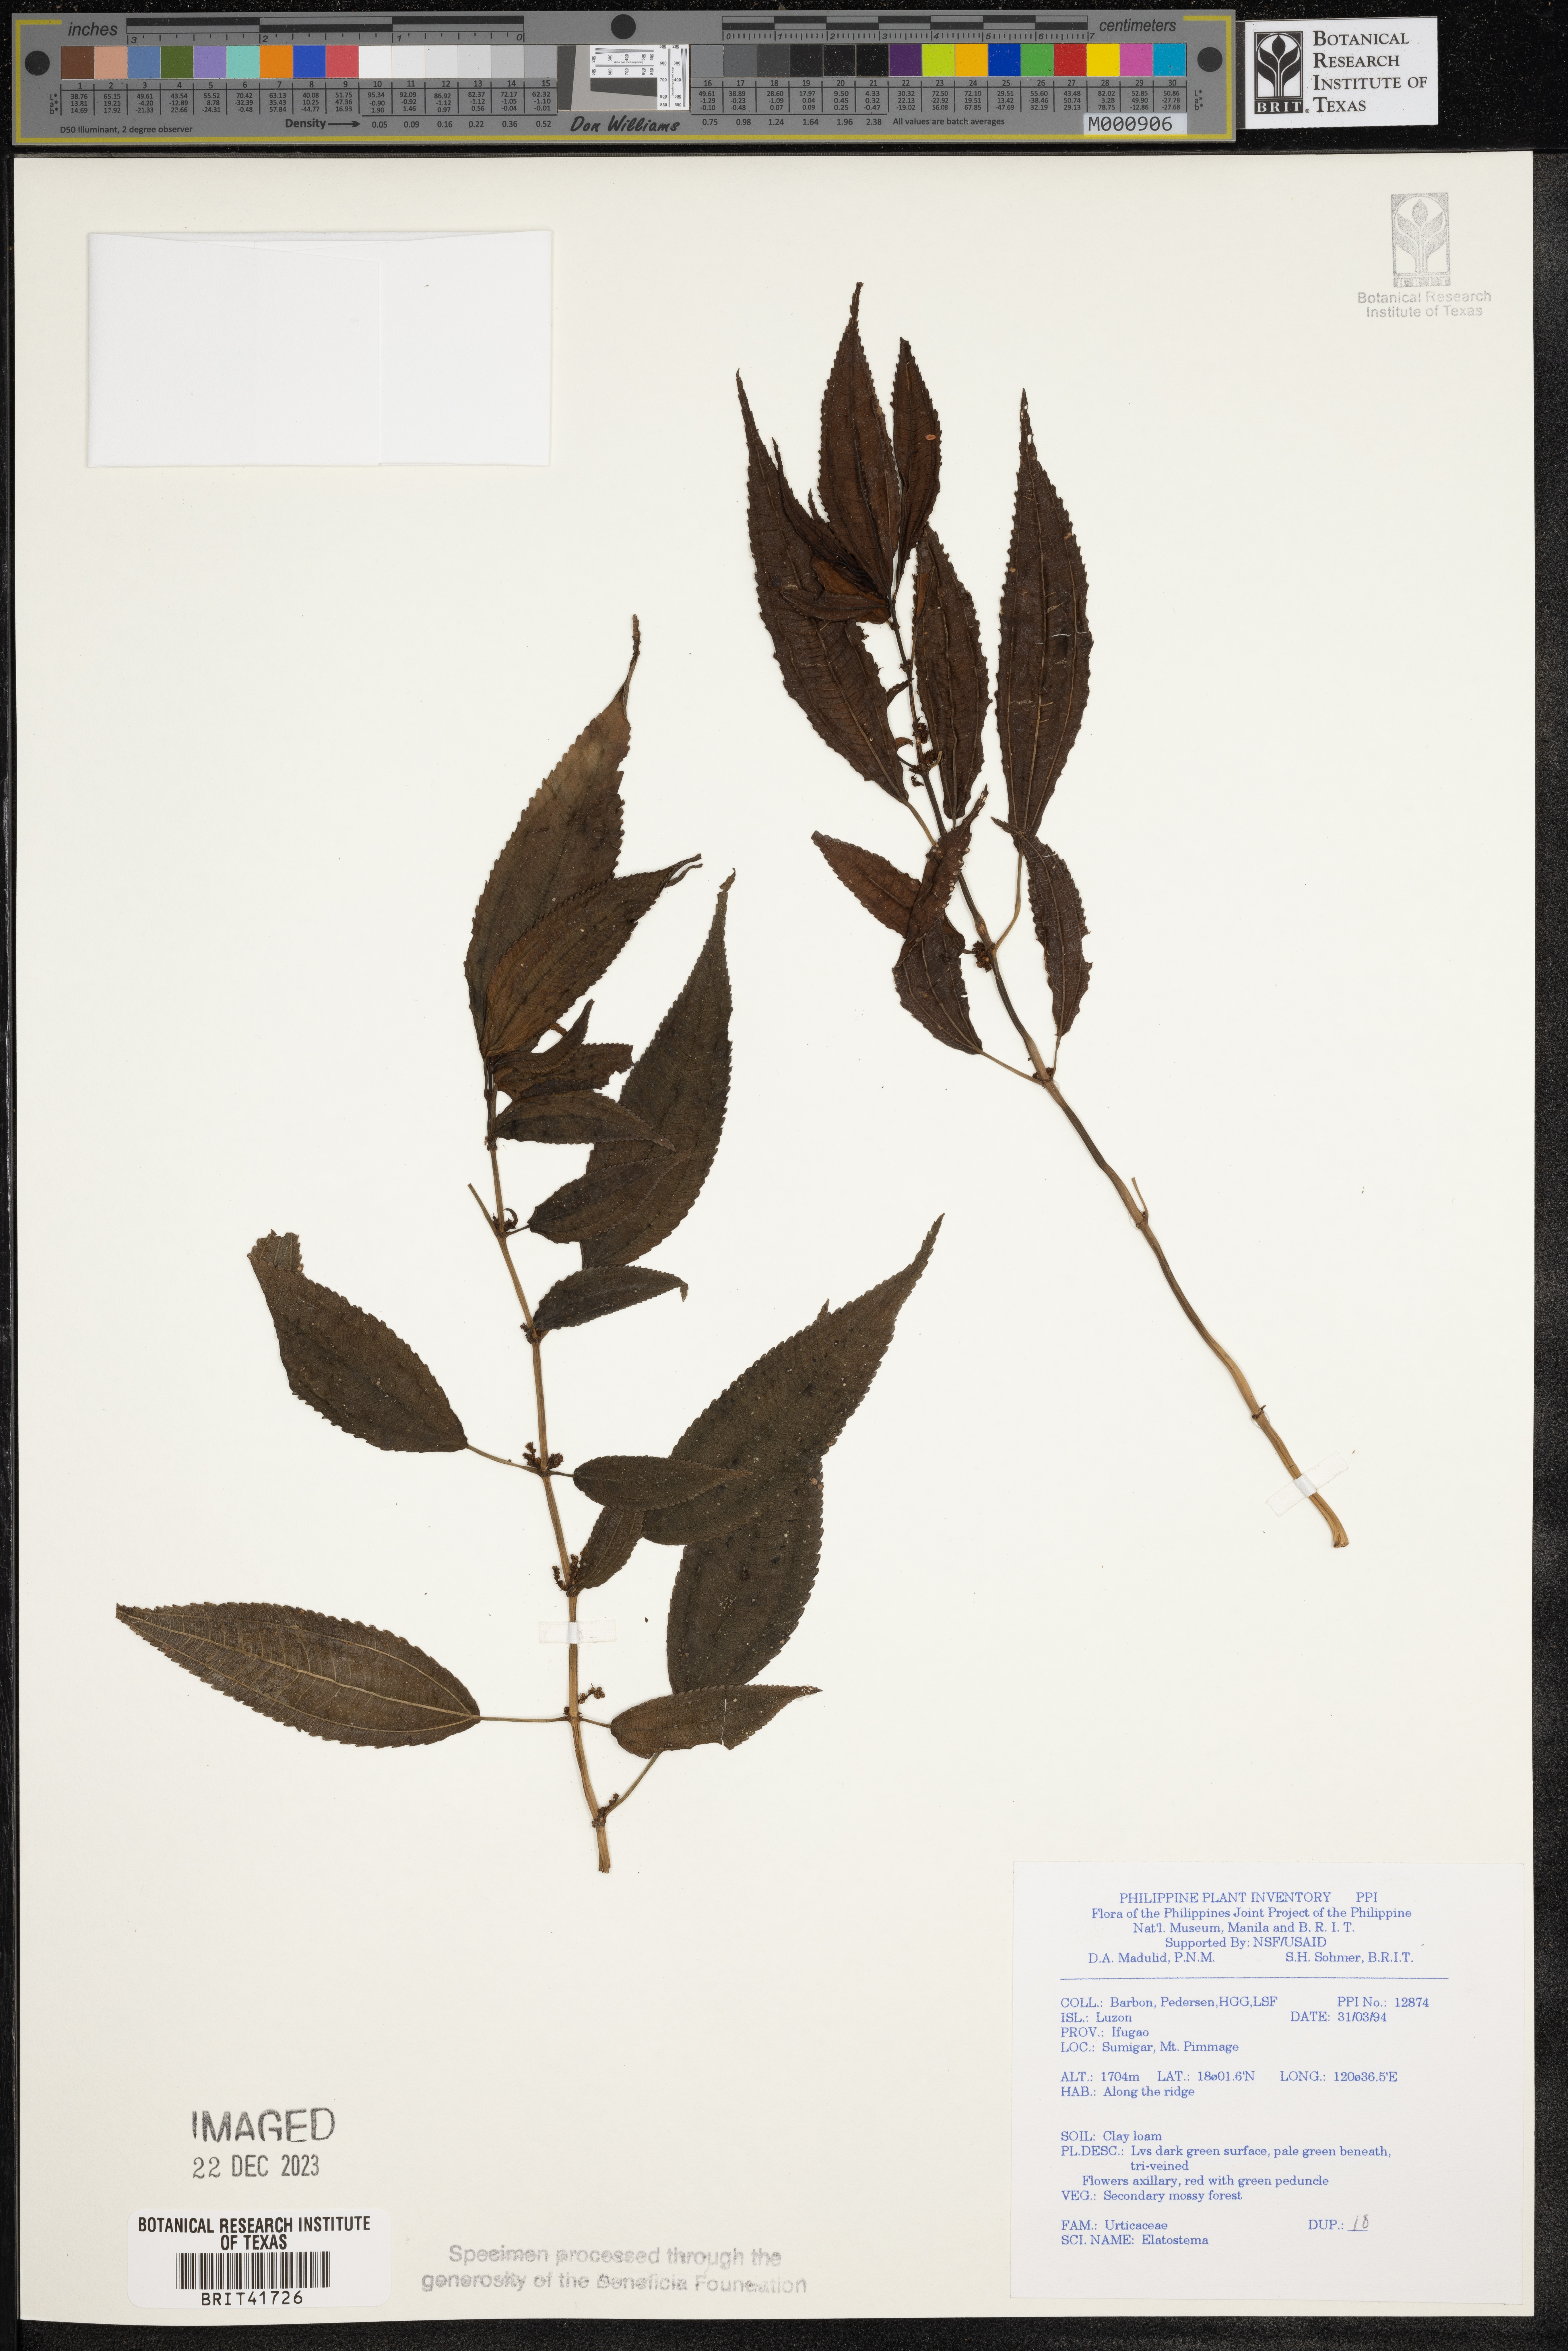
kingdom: Plantae
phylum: Tracheophyta
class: Magnoliopsida
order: Rosales
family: Urticaceae
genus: Elatostema
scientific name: Elatostema
